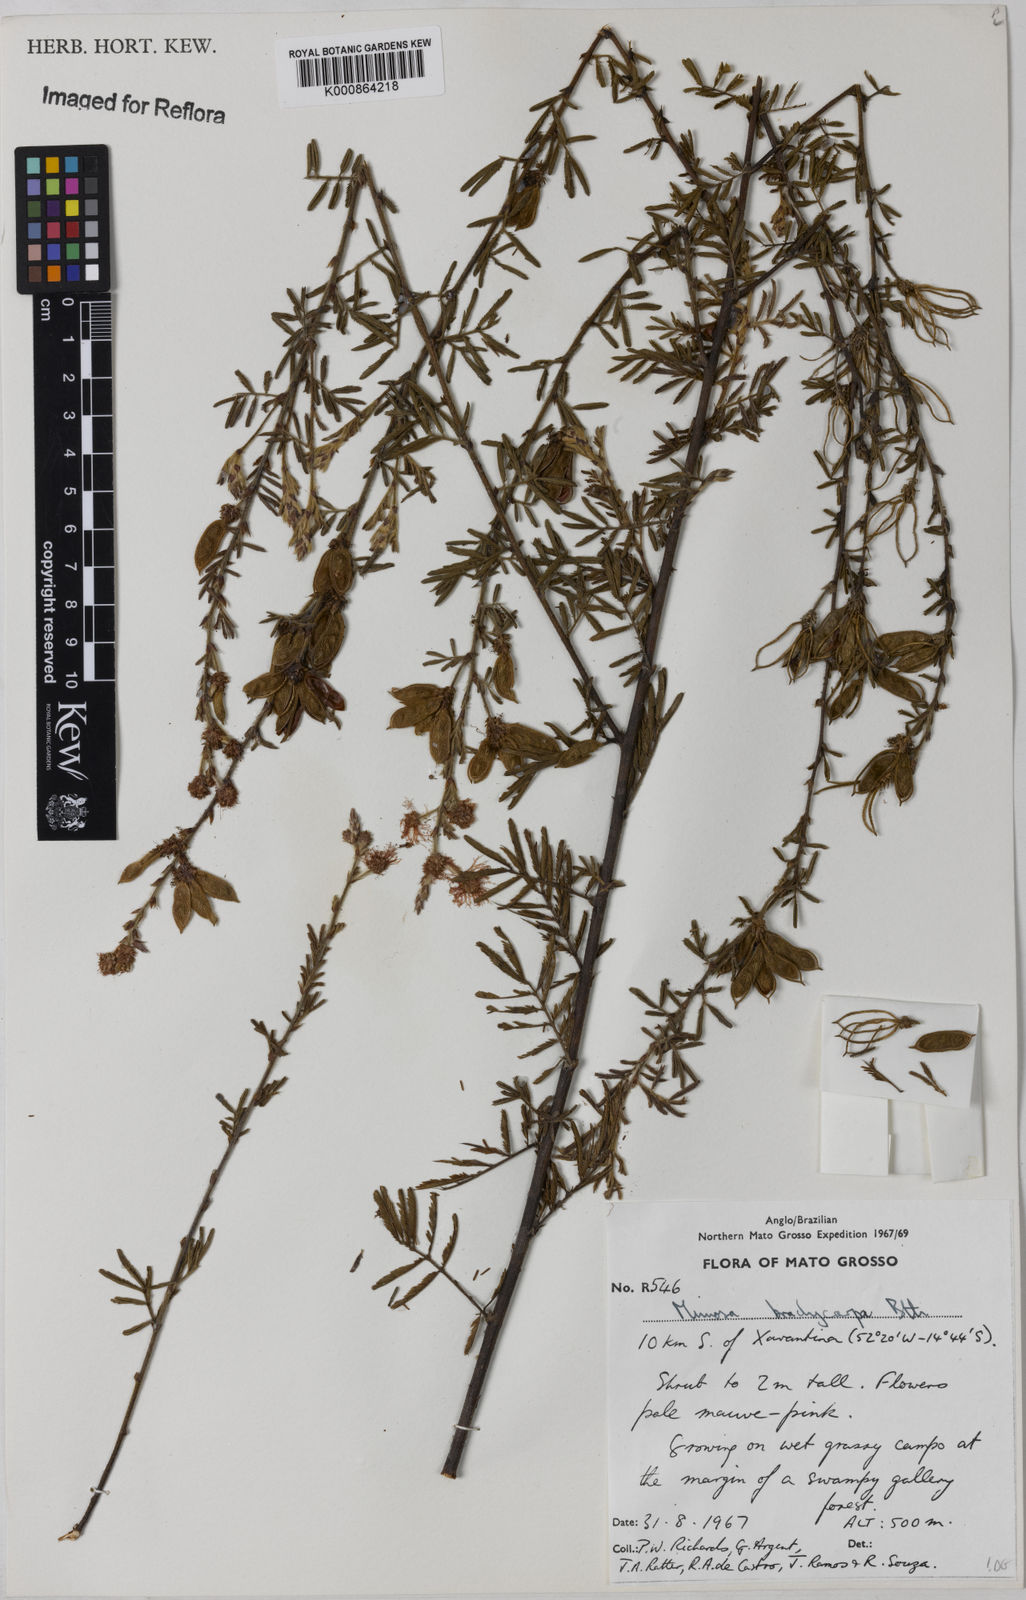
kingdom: Plantae
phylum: Tracheophyta
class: Magnoliopsida
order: Fabales
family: Fabaceae
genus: Mimosa
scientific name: Mimosa brachycarpa
